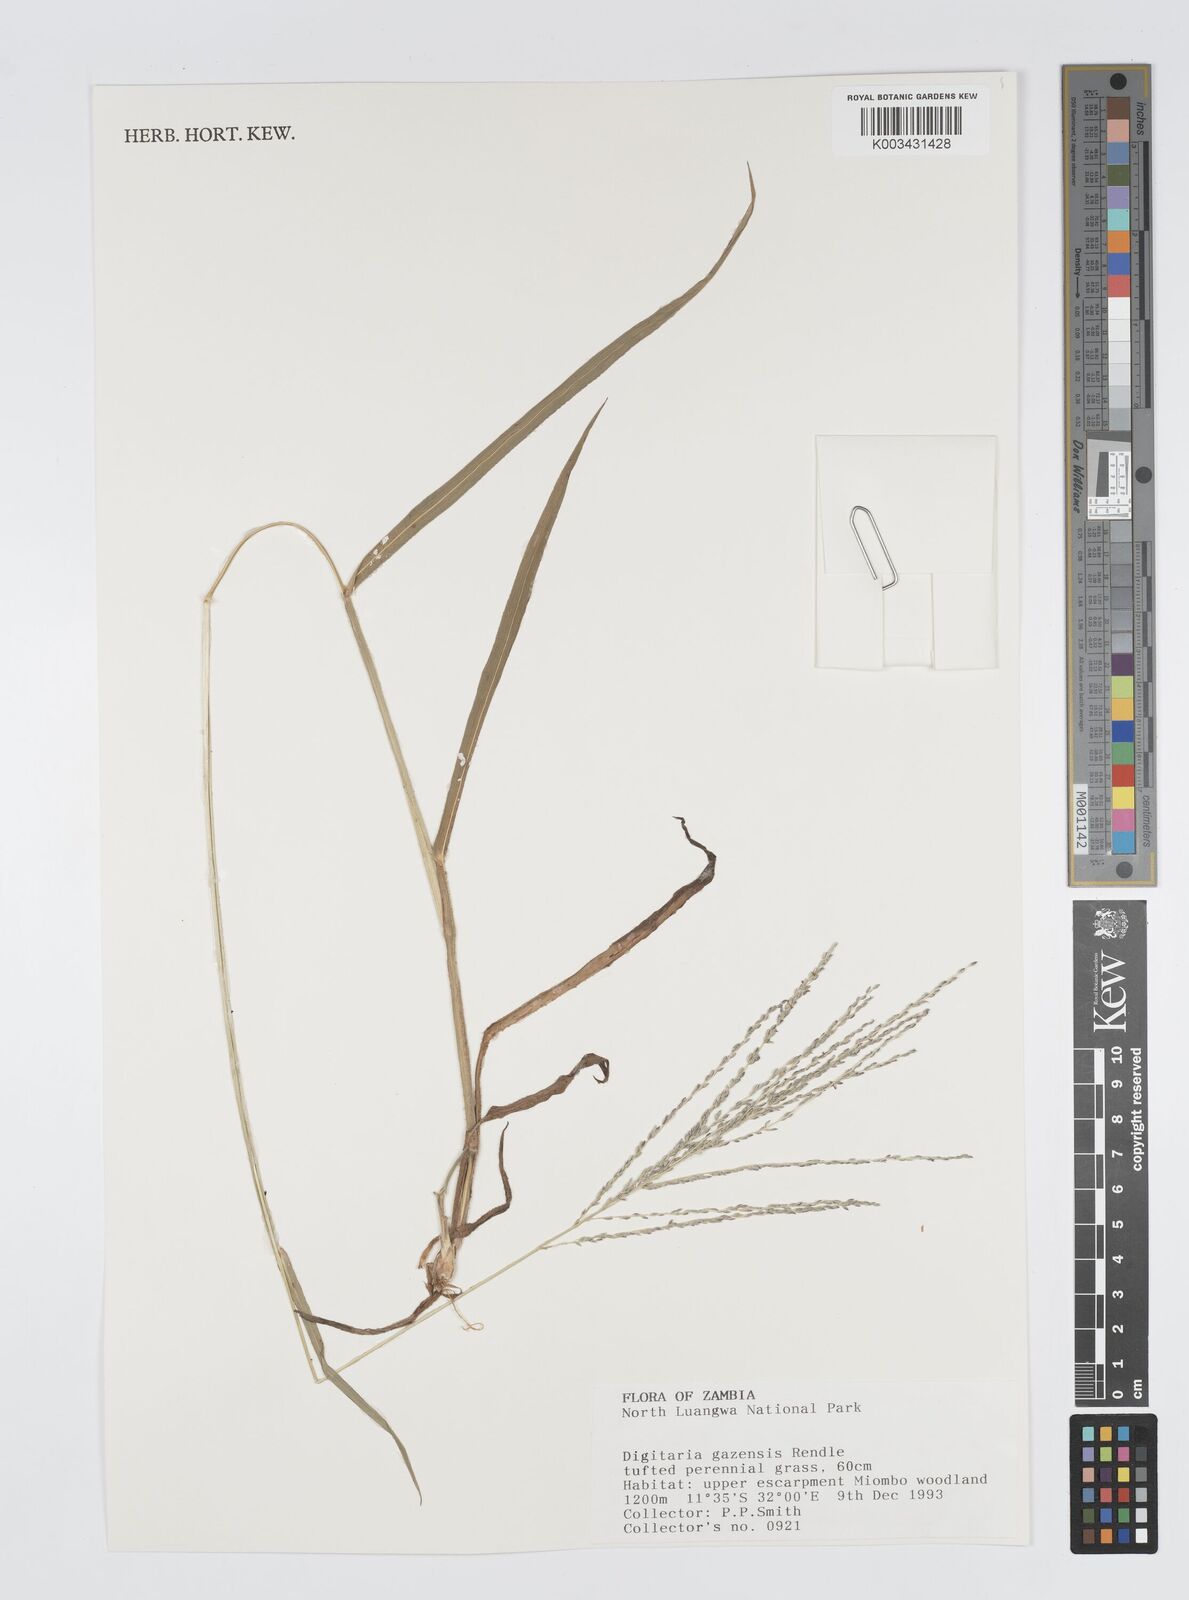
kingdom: Plantae
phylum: Tracheophyta
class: Liliopsida
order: Poales
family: Poaceae
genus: Digitaria
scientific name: Digitaria gazensis
